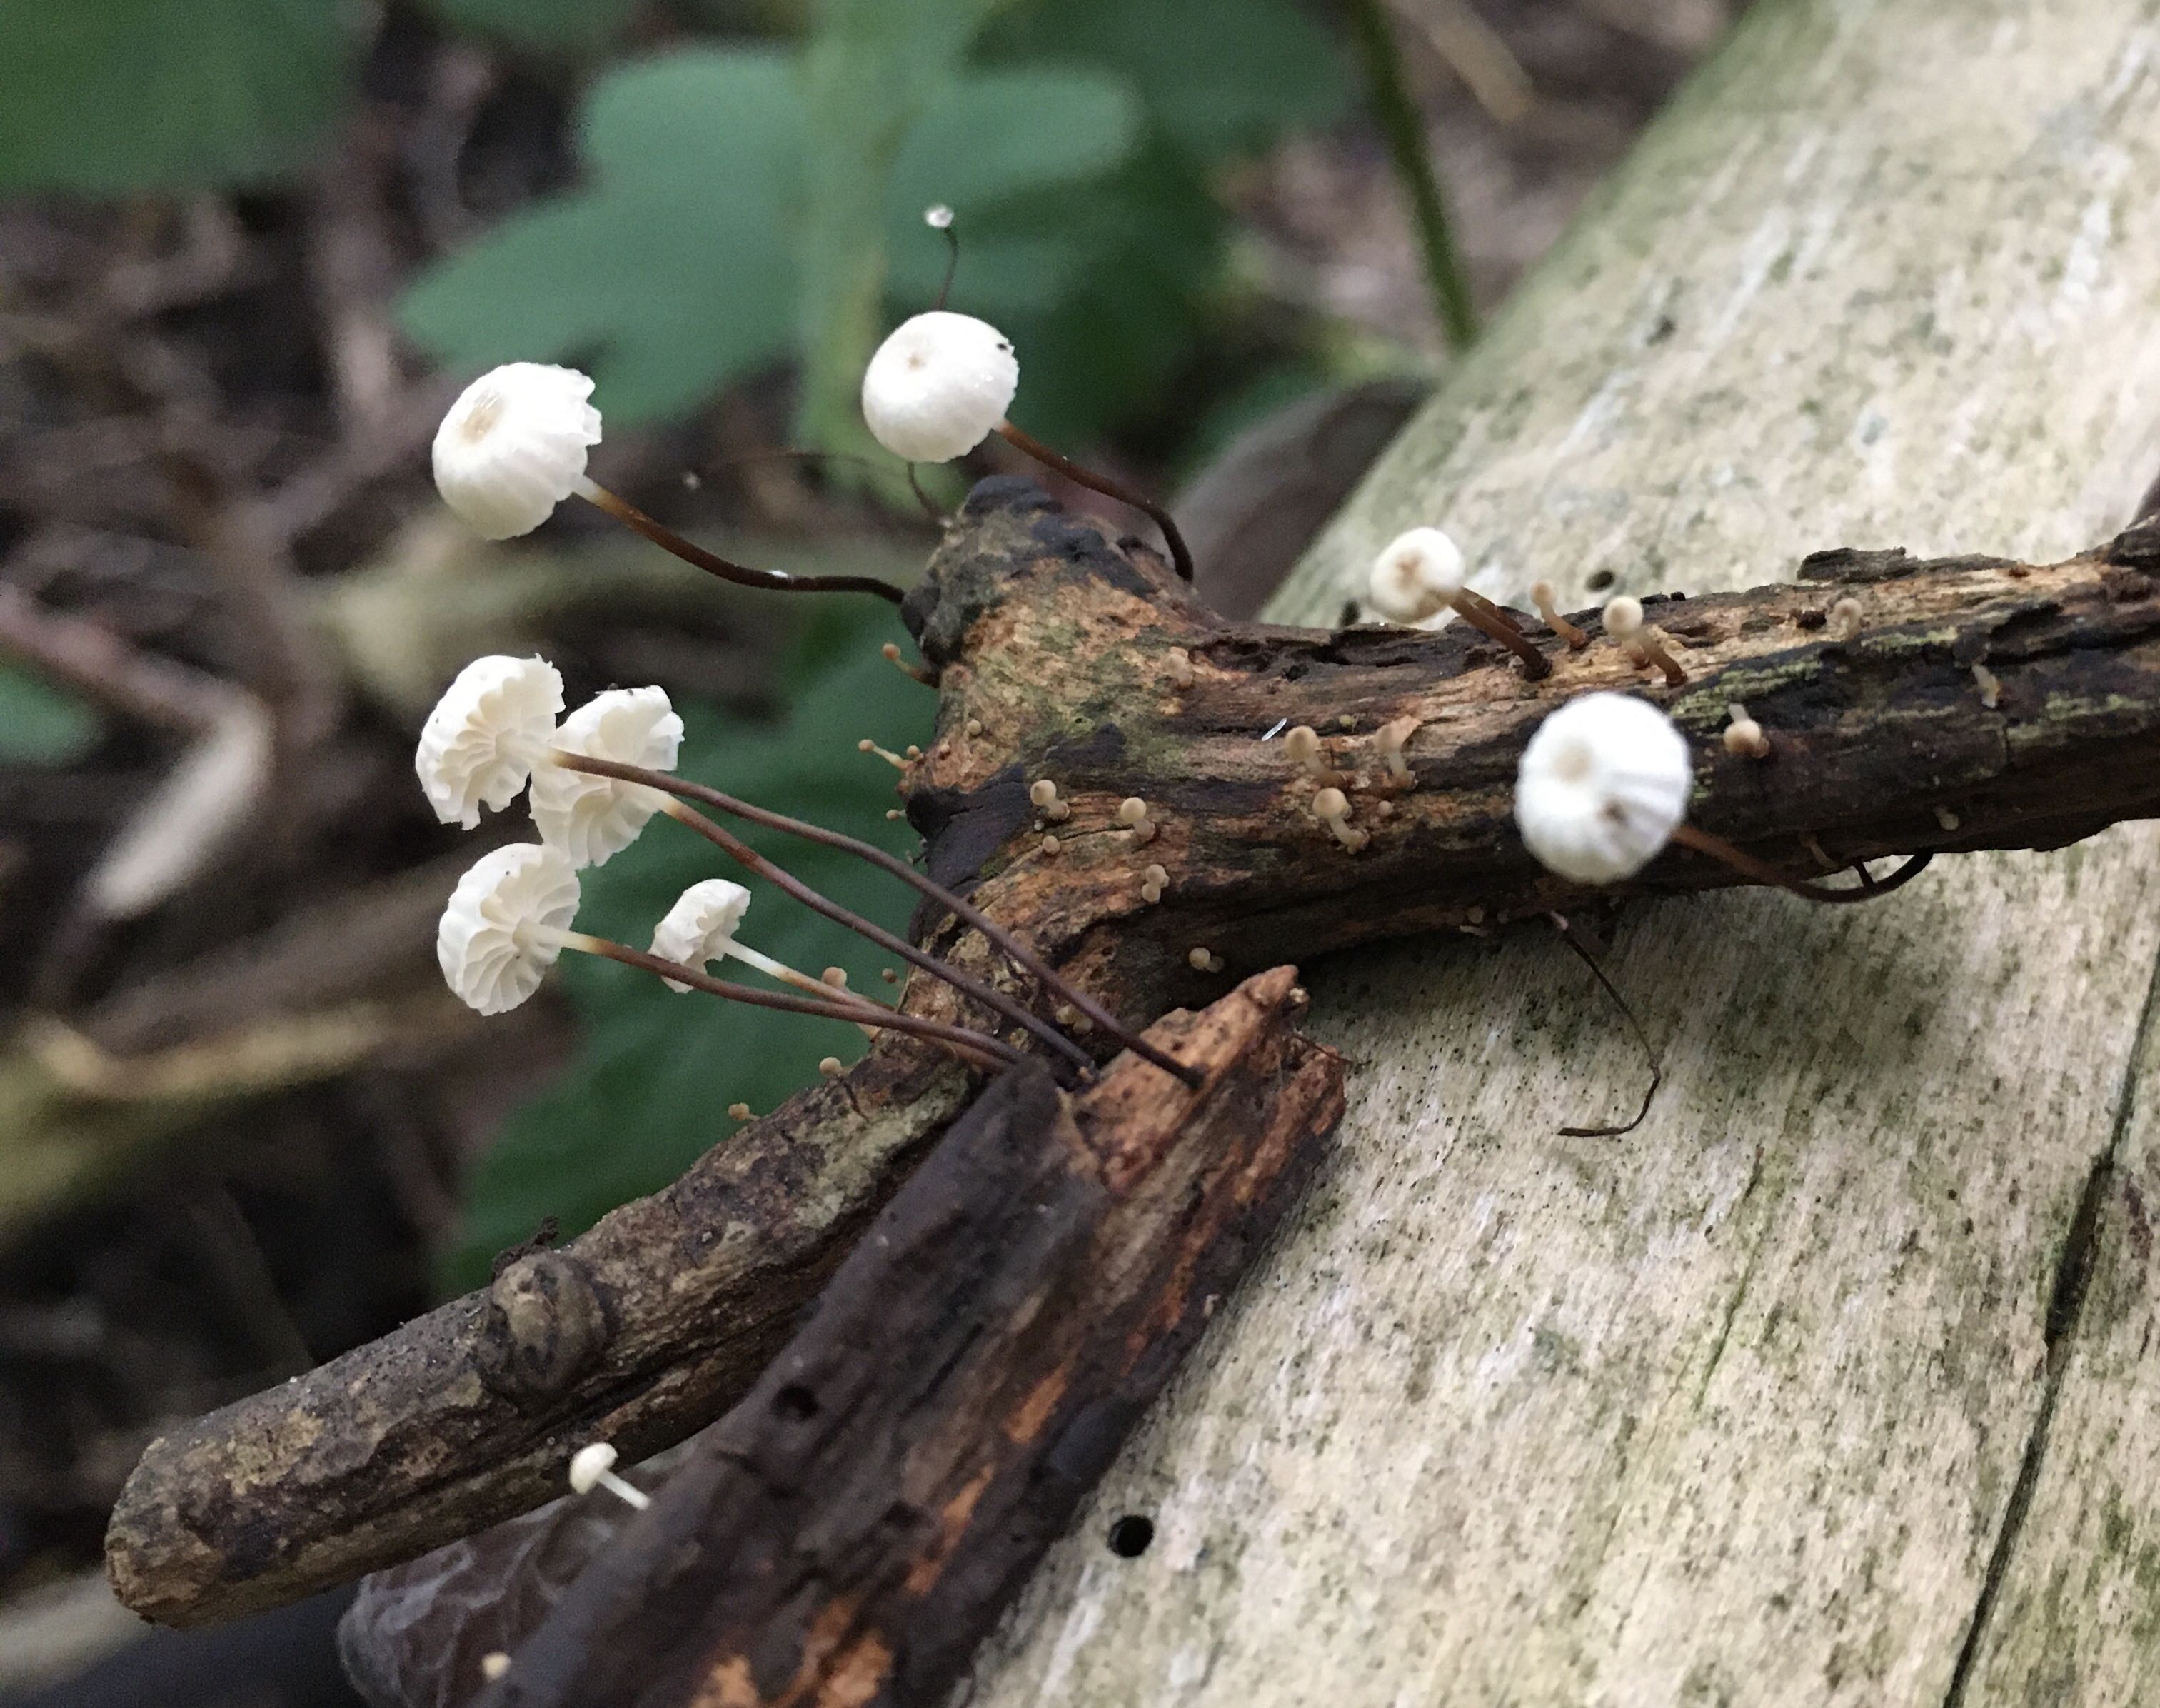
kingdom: Fungi
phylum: Basidiomycota
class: Agaricomycetes
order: Agaricales
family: Marasmiaceae
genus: Marasmius
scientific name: Marasmius rotula
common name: hjul-bruskhat
